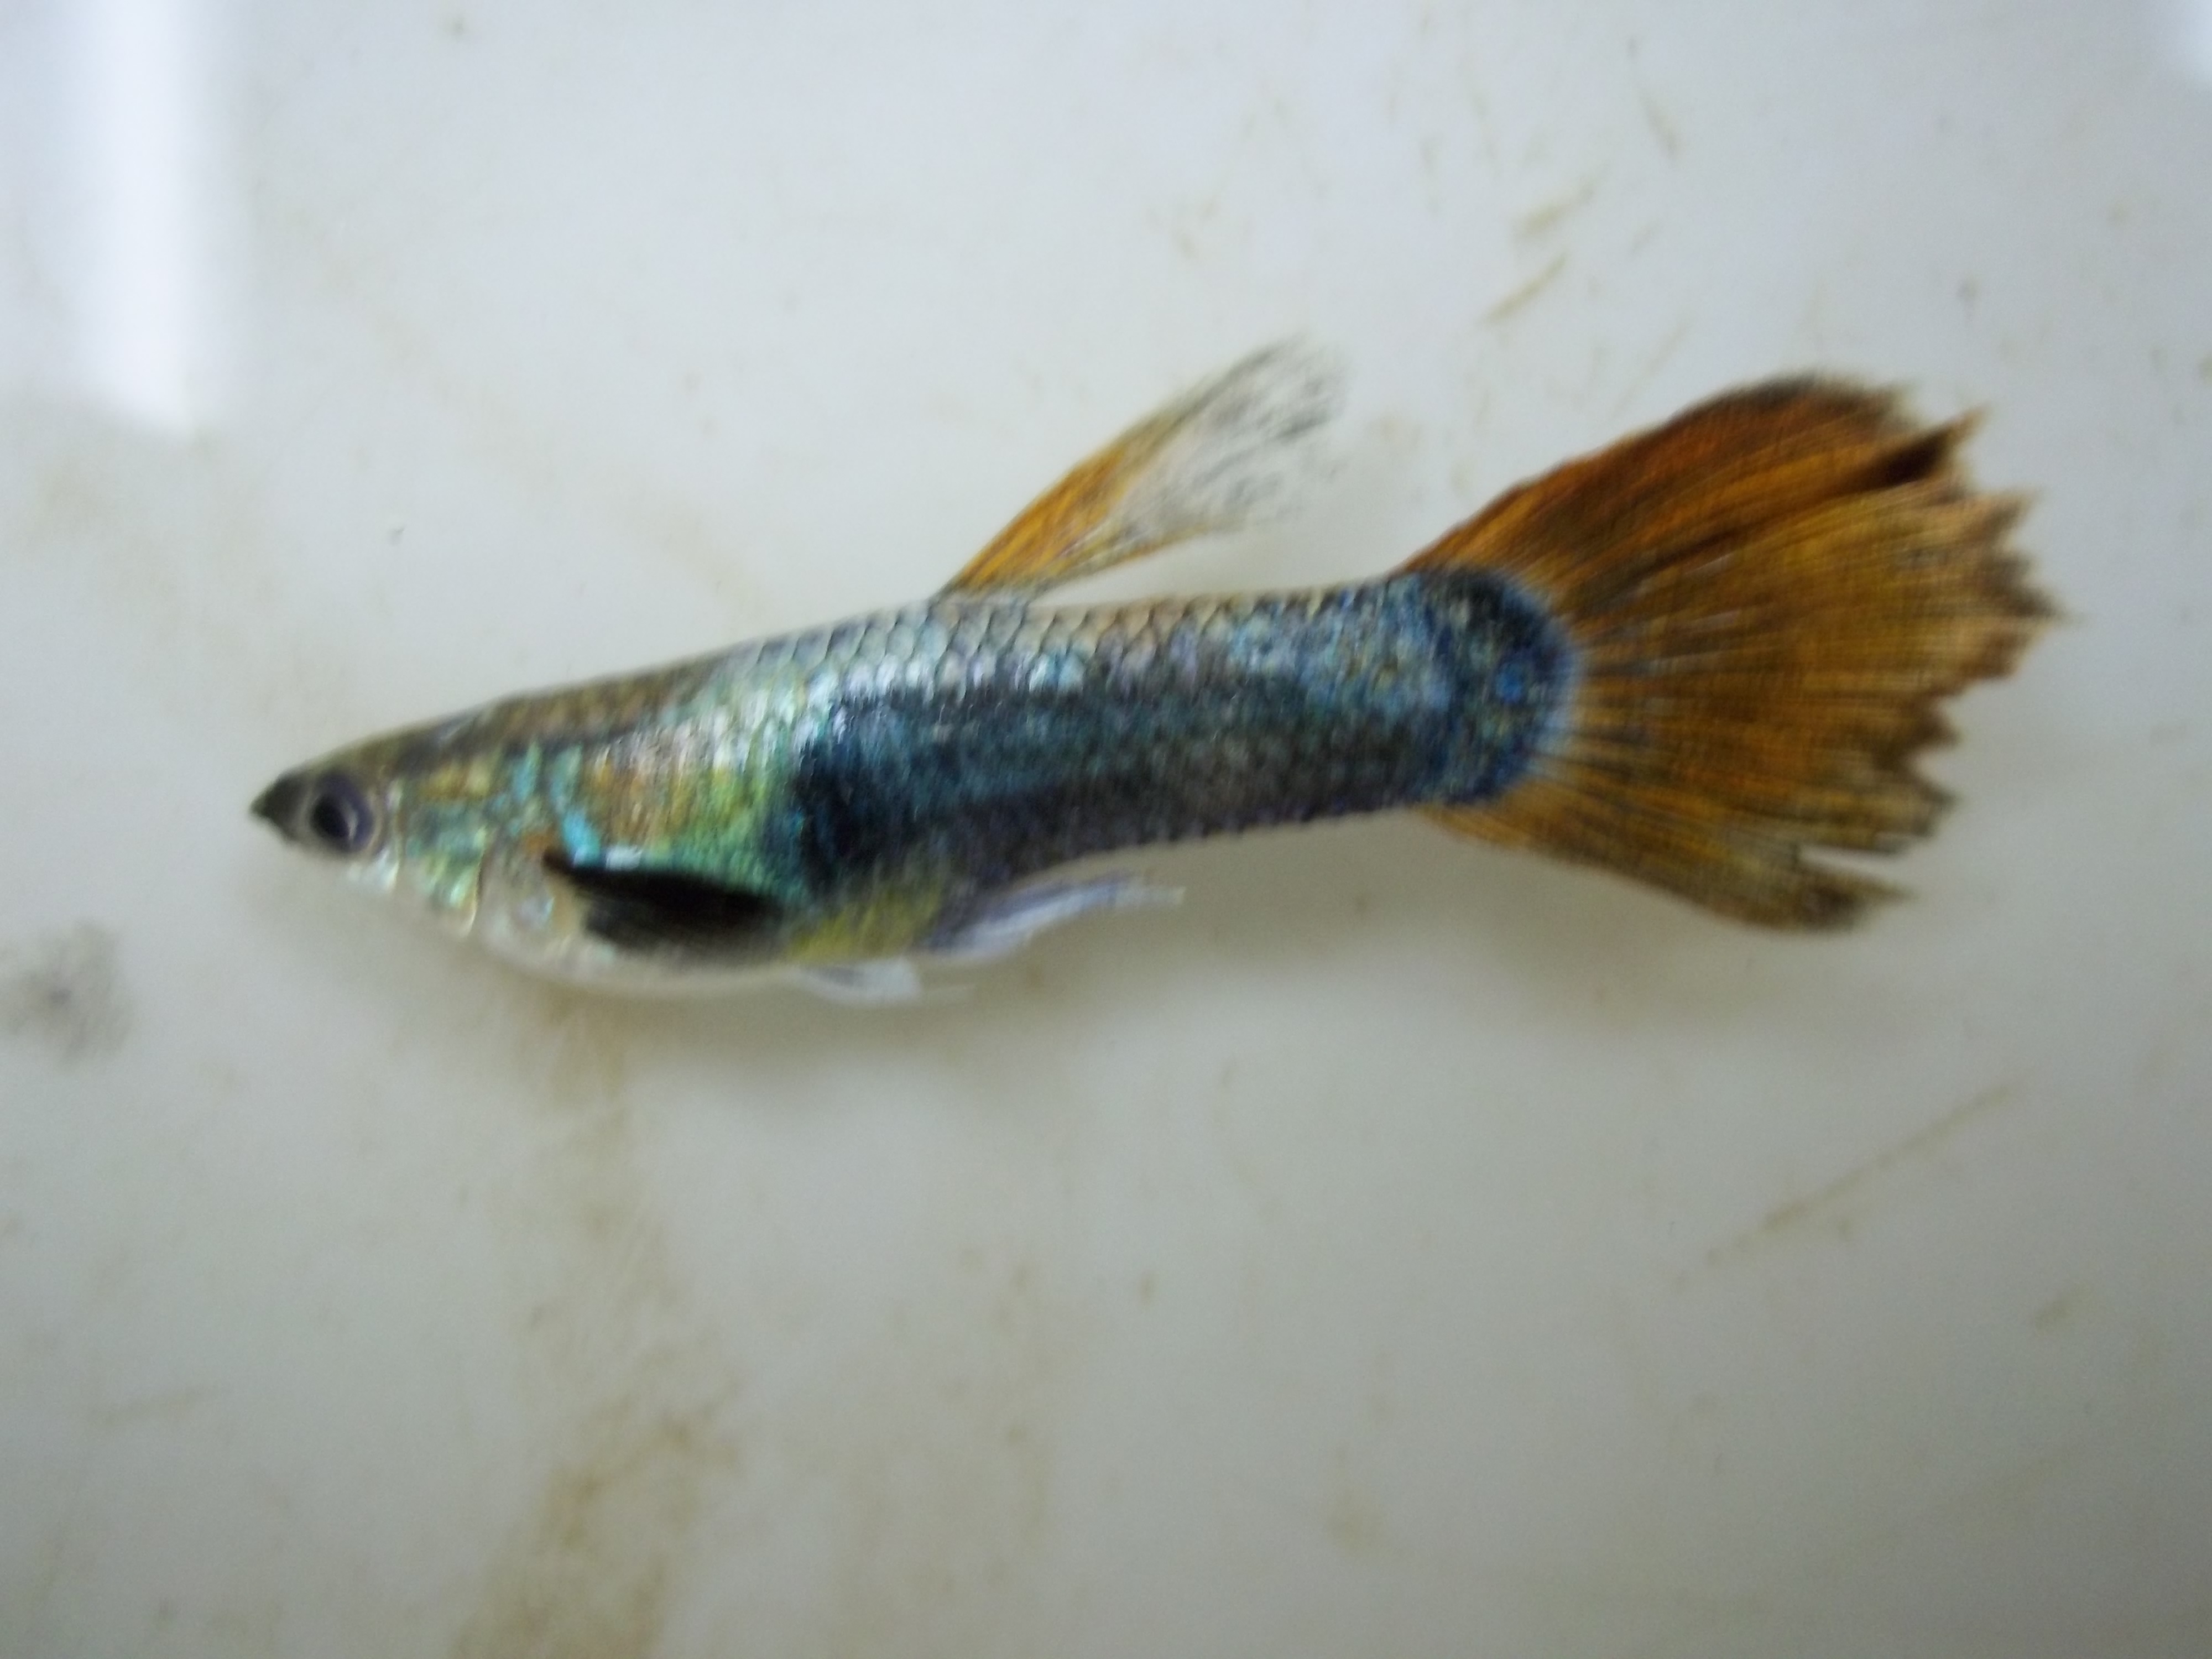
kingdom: Animalia
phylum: Chordata
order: Cyprinodontiformes
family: Poeciliidae
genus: Poecilia
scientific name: Poecilia reticulata
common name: Guppy
